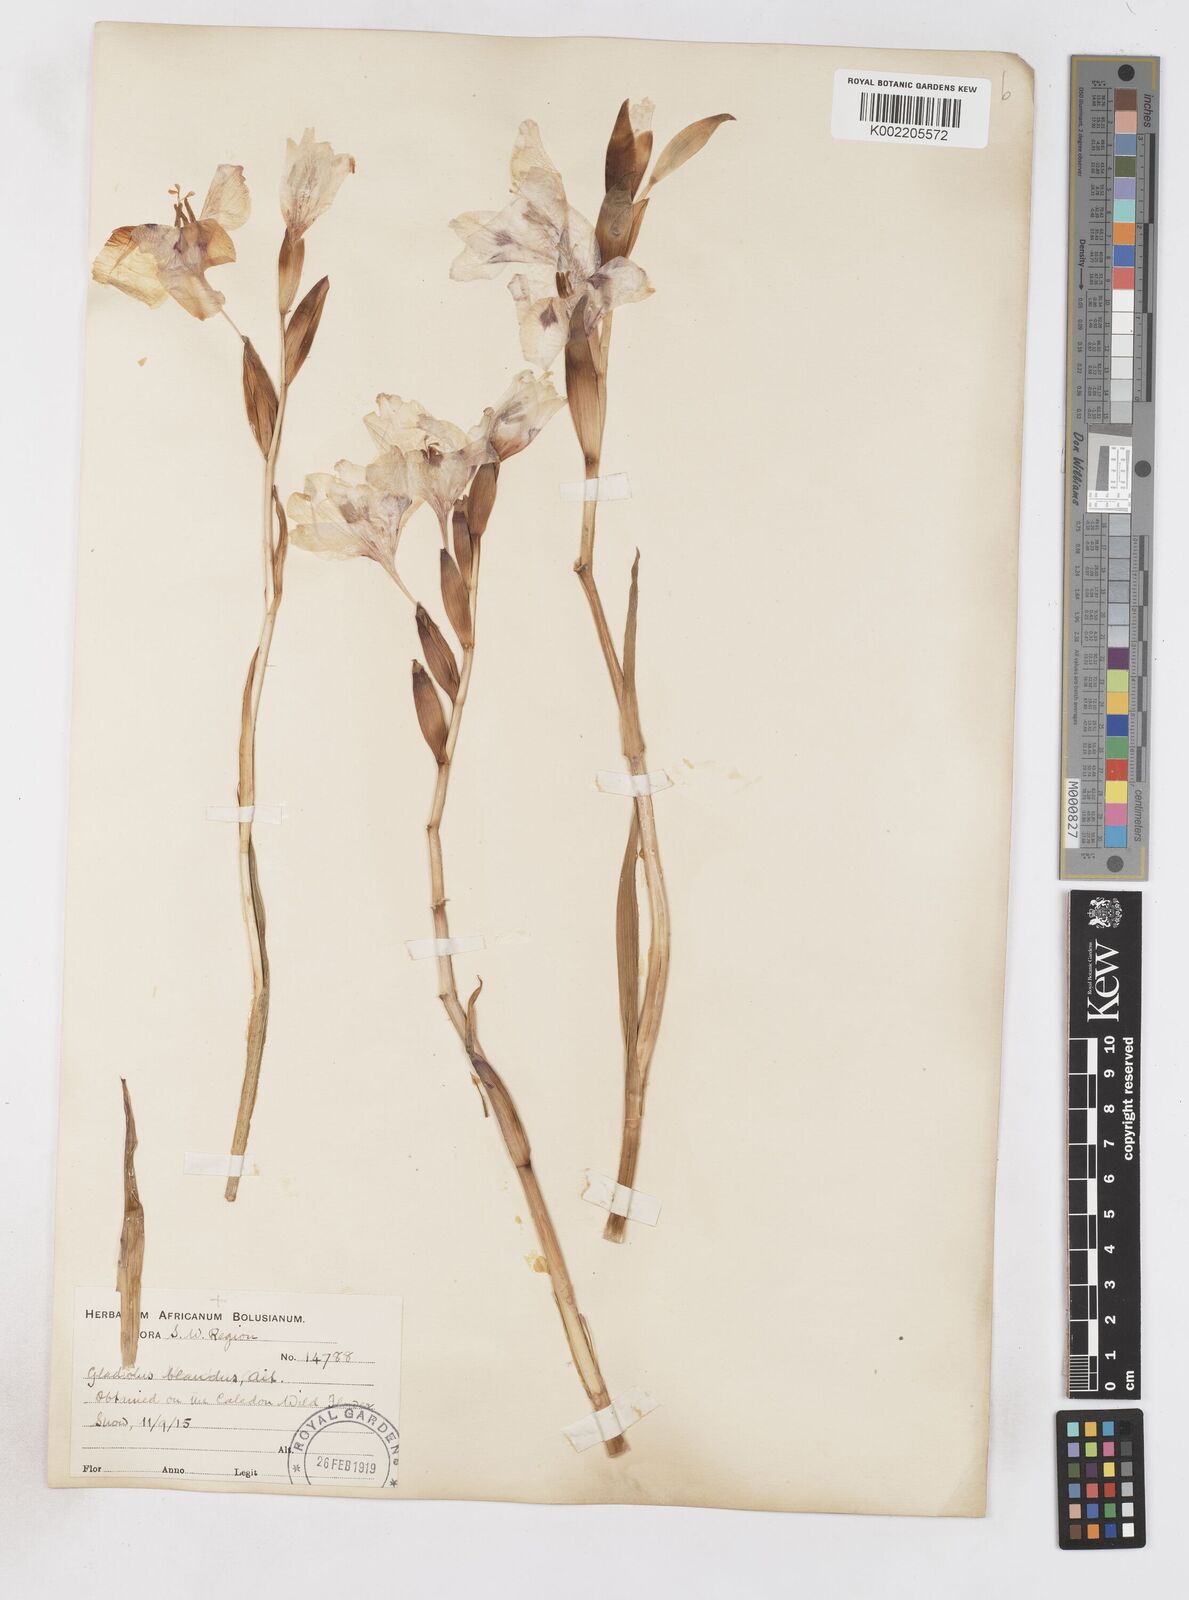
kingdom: Plantae
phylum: Tracheophyta
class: Liliopsida
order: Asparagales
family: Iridaceae
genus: Gladiolus
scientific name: Gladiolus carneus
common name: Painted-lady
